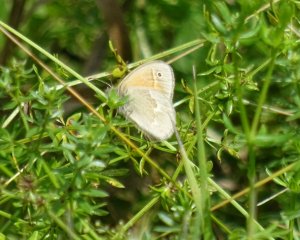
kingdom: Animalia
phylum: Arthropoda
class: Insecta
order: Lepidoptera
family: Nymphalidae
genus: Coenonympha
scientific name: Coenonympha tullia
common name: Large Heath
